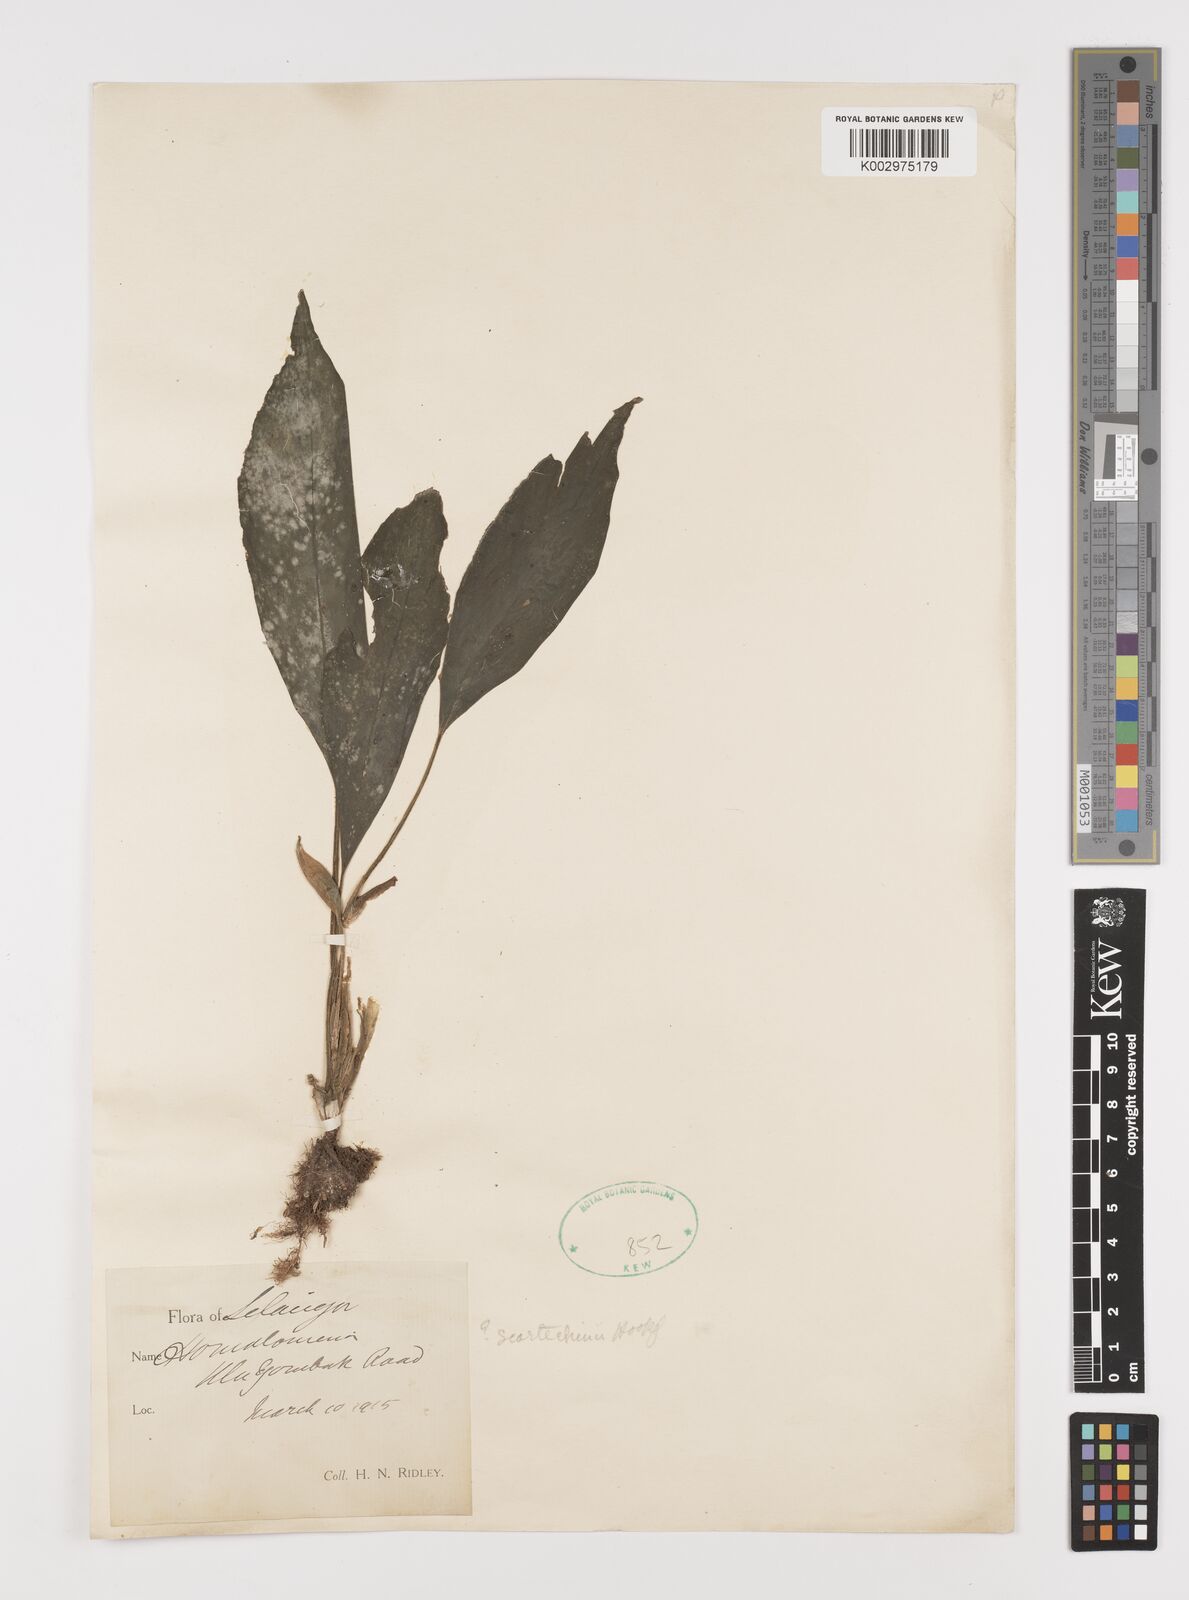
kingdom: Plantae
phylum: Tracheophyta
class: Liliopsida
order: Alismatales
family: Araceae
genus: Homalomena
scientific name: Homalomena
